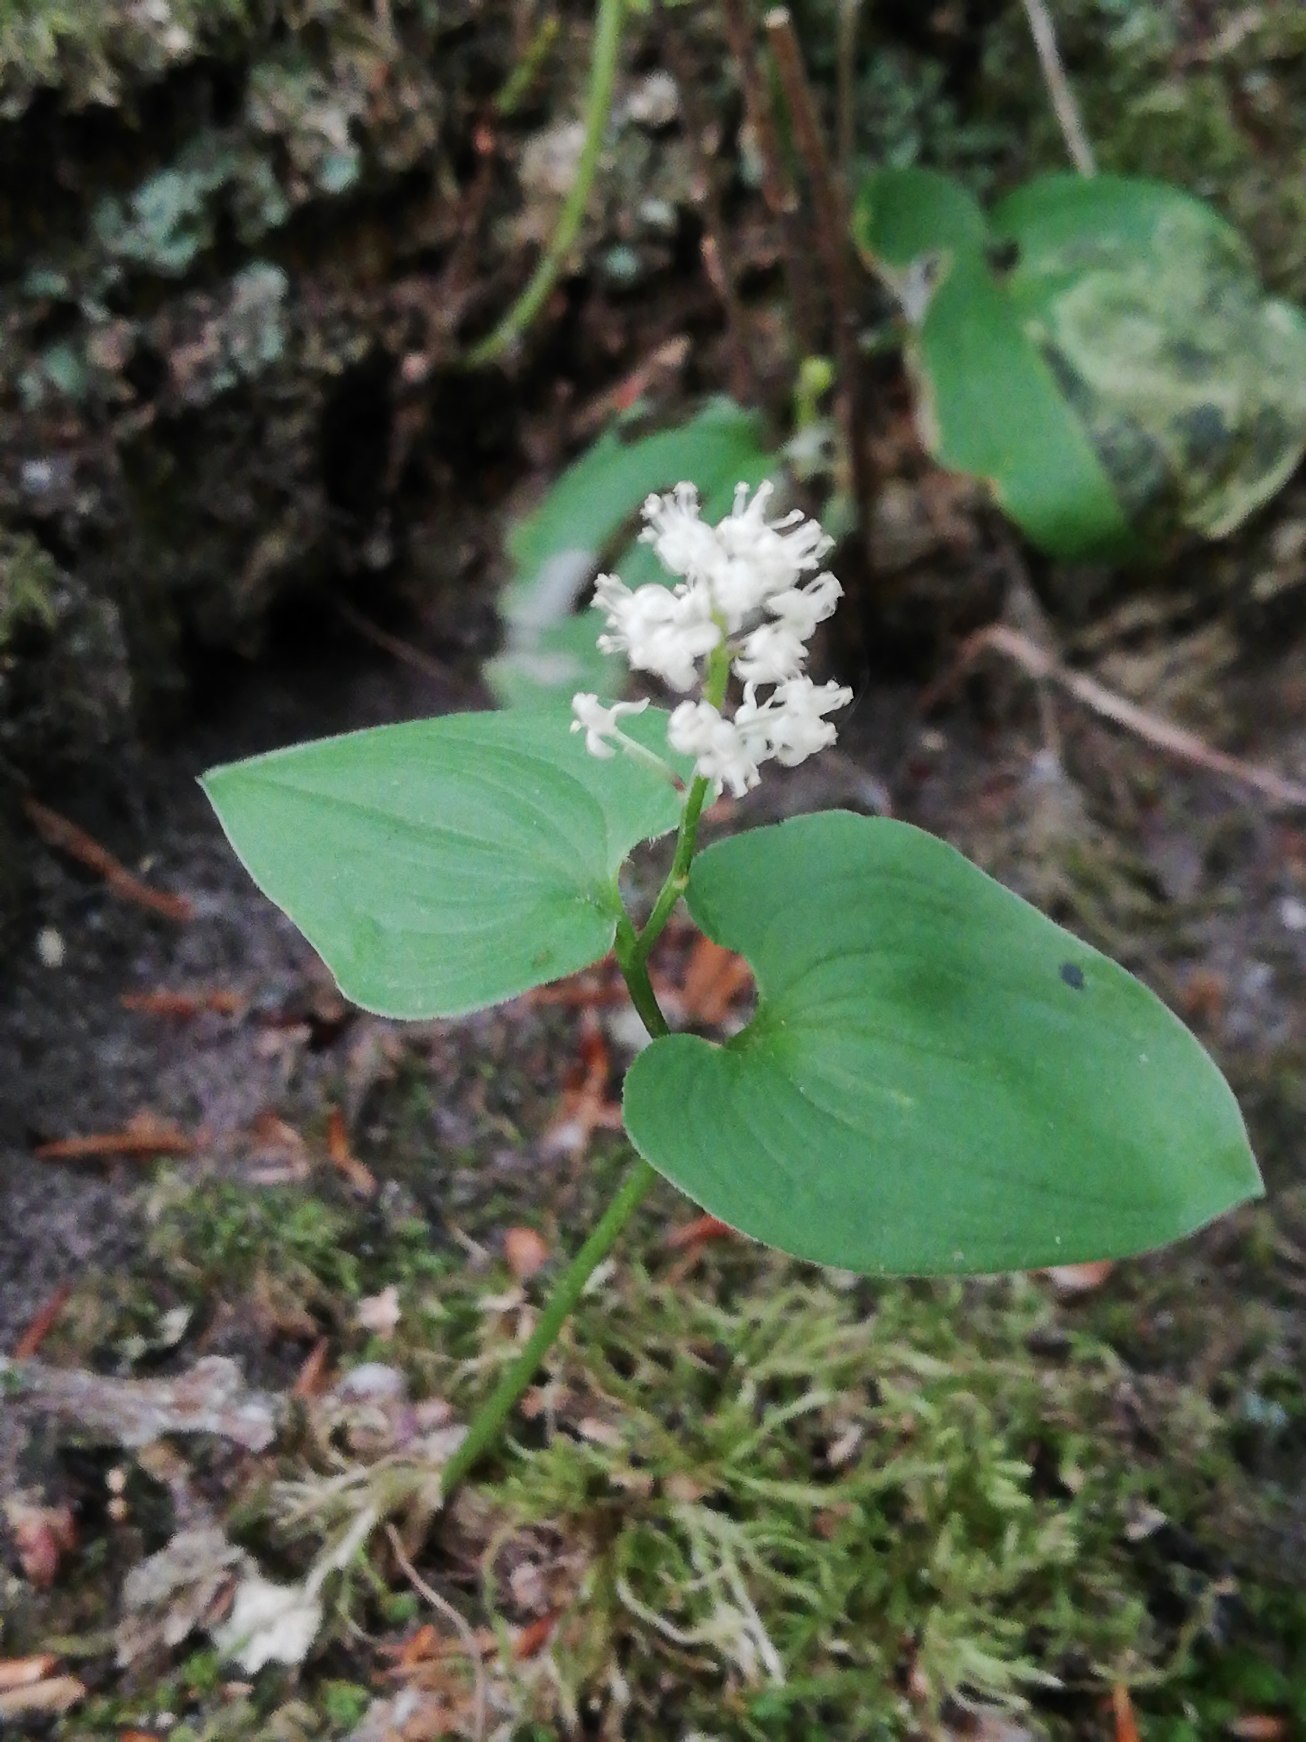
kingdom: Plantae
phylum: Tracheophyta
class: Liliopsida
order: Asparagales
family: Asparagaceae
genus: Maianthemum
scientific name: Maianthemum bifolium
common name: Majblomst
